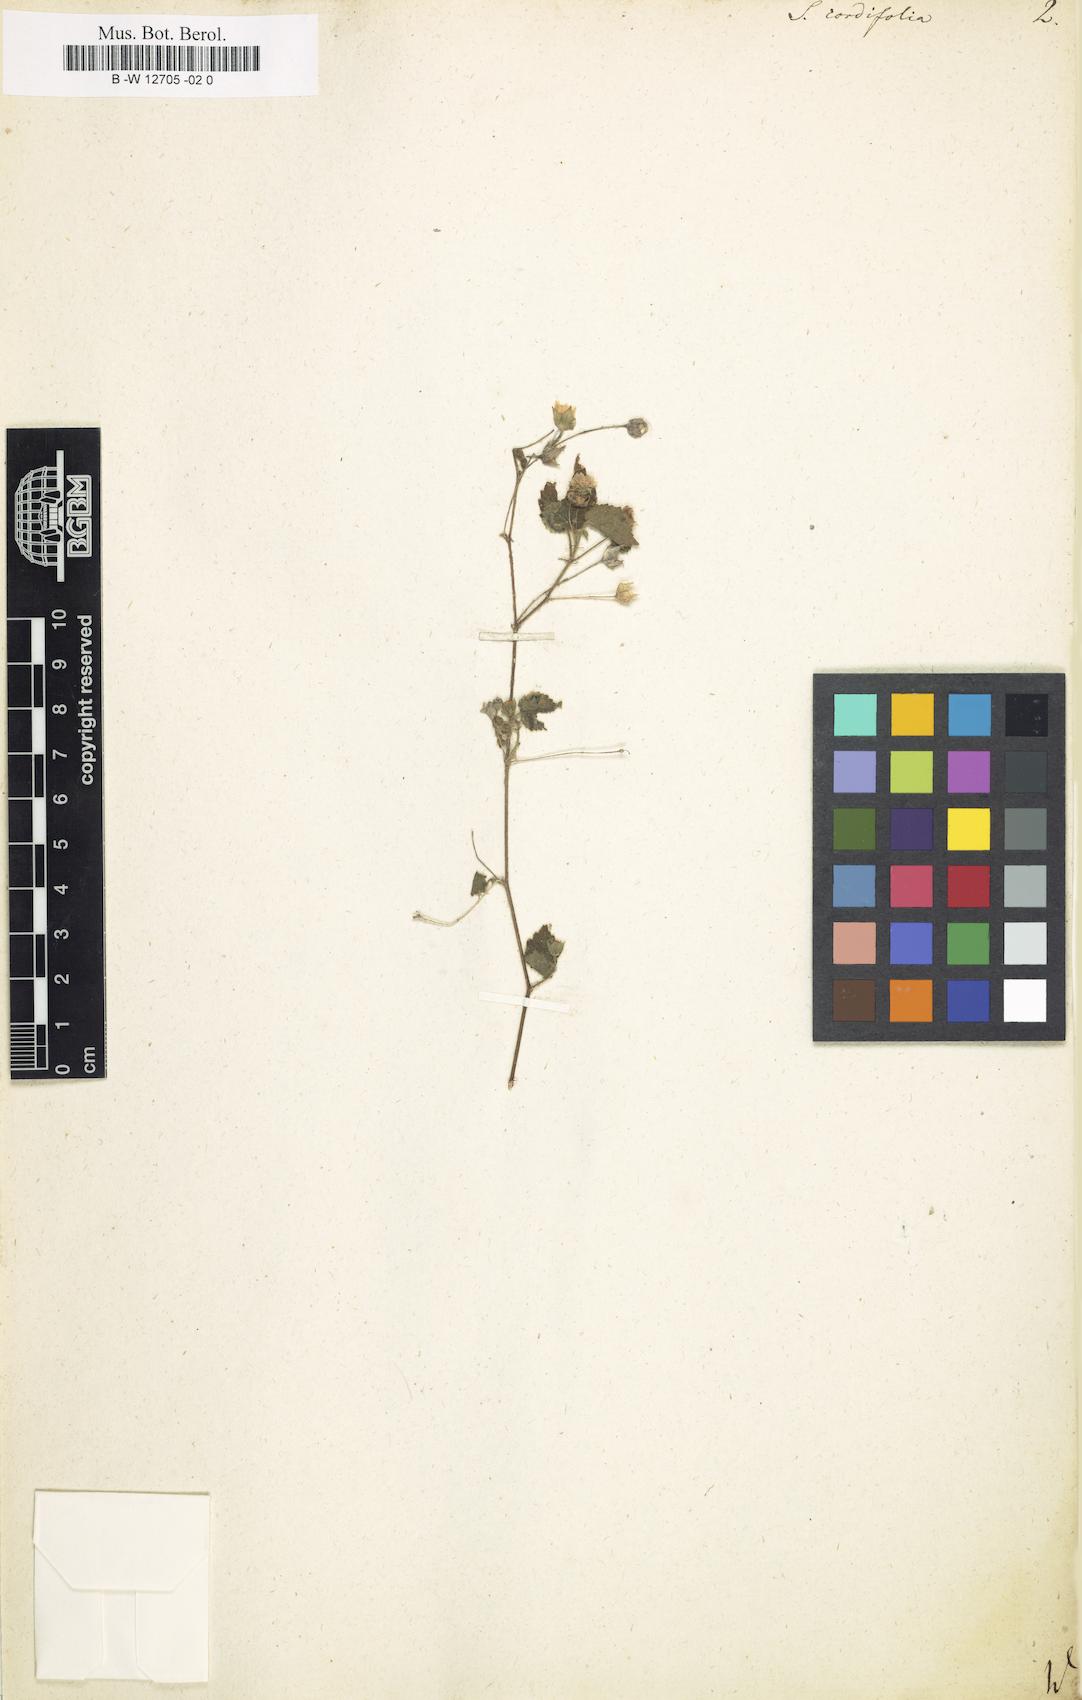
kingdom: Plantae
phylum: Tracheophyta
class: Magnoliopsida
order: Malvales
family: Malvaceae
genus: Sida
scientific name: Sida cordifolia
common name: Ilima
